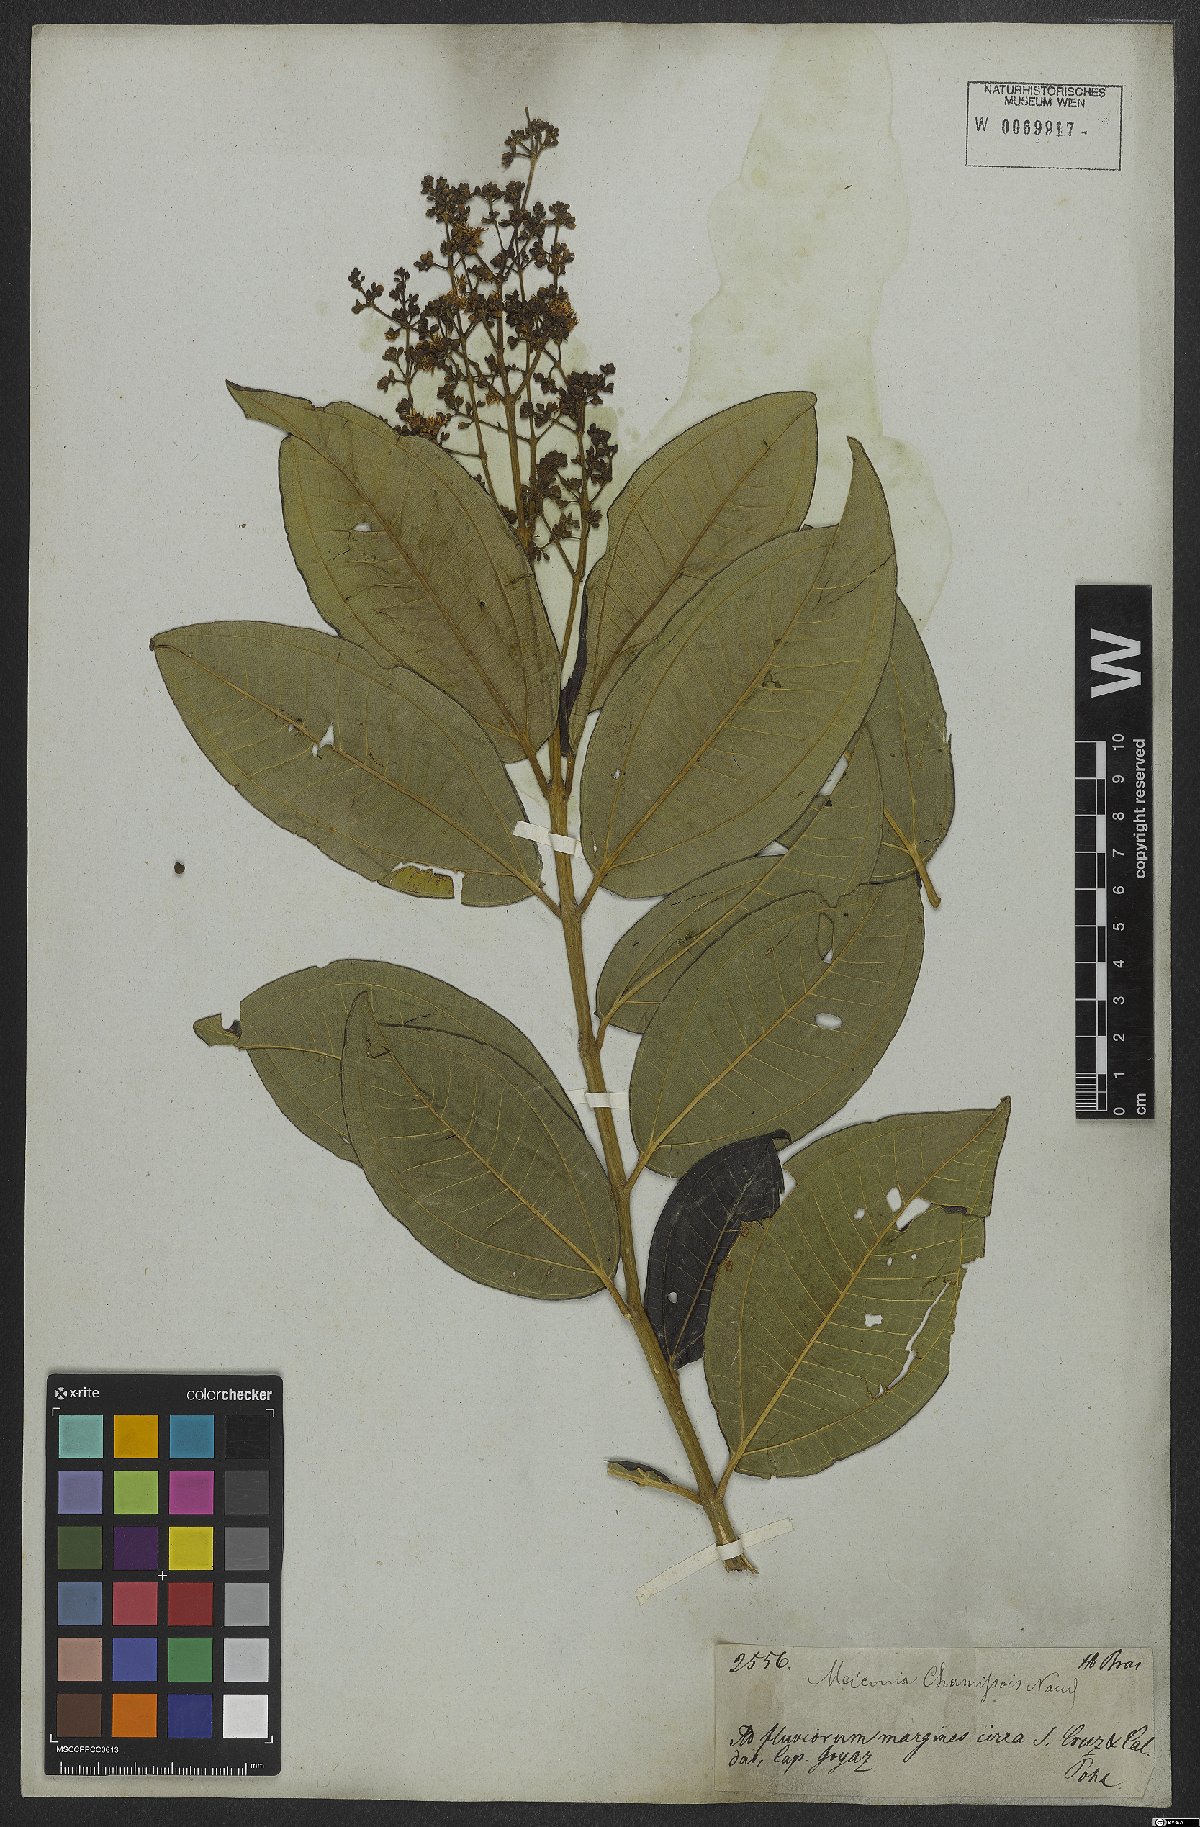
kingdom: Plantae
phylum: Tracheophyta
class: Magnoliopsida
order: Myrtales
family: Melastomataceae
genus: Miconia
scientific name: Miconia chamissois
